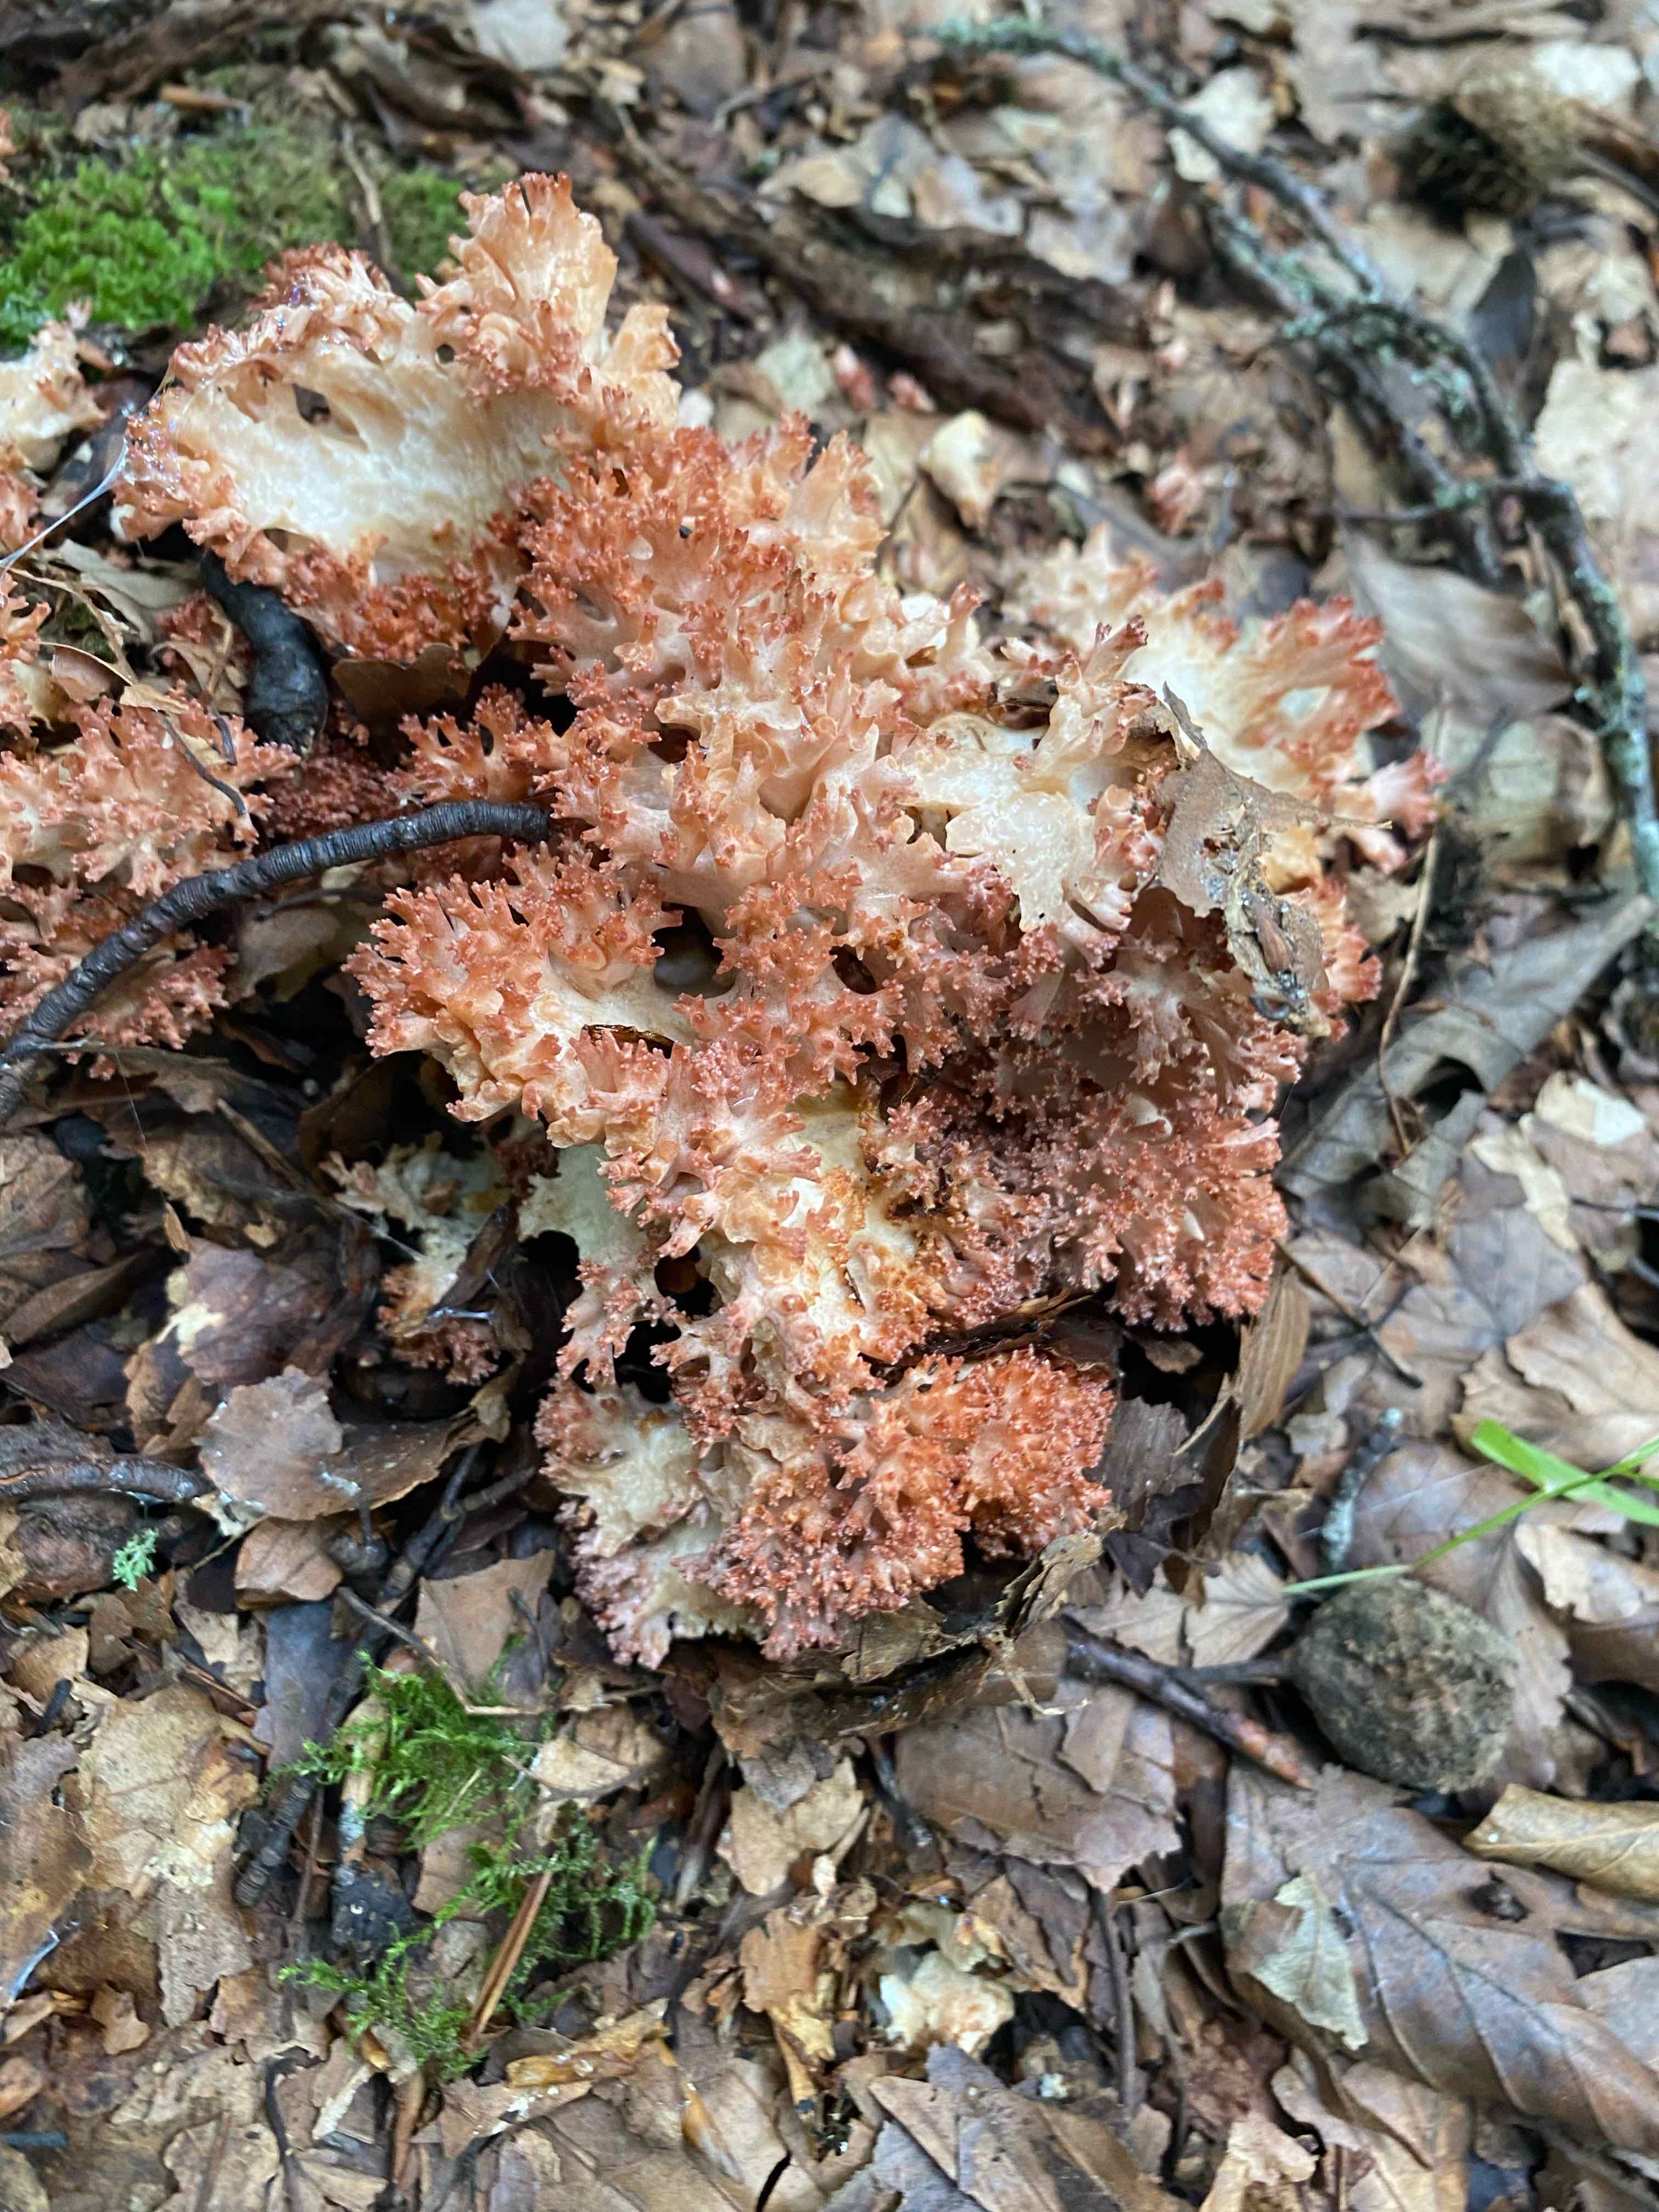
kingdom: Fungi
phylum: Basidiomycota
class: Agaricomycetes
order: Gomphales
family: Gomphaceae
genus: Ramaria
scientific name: Ramaria botrytis
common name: drue-koralsvamp
